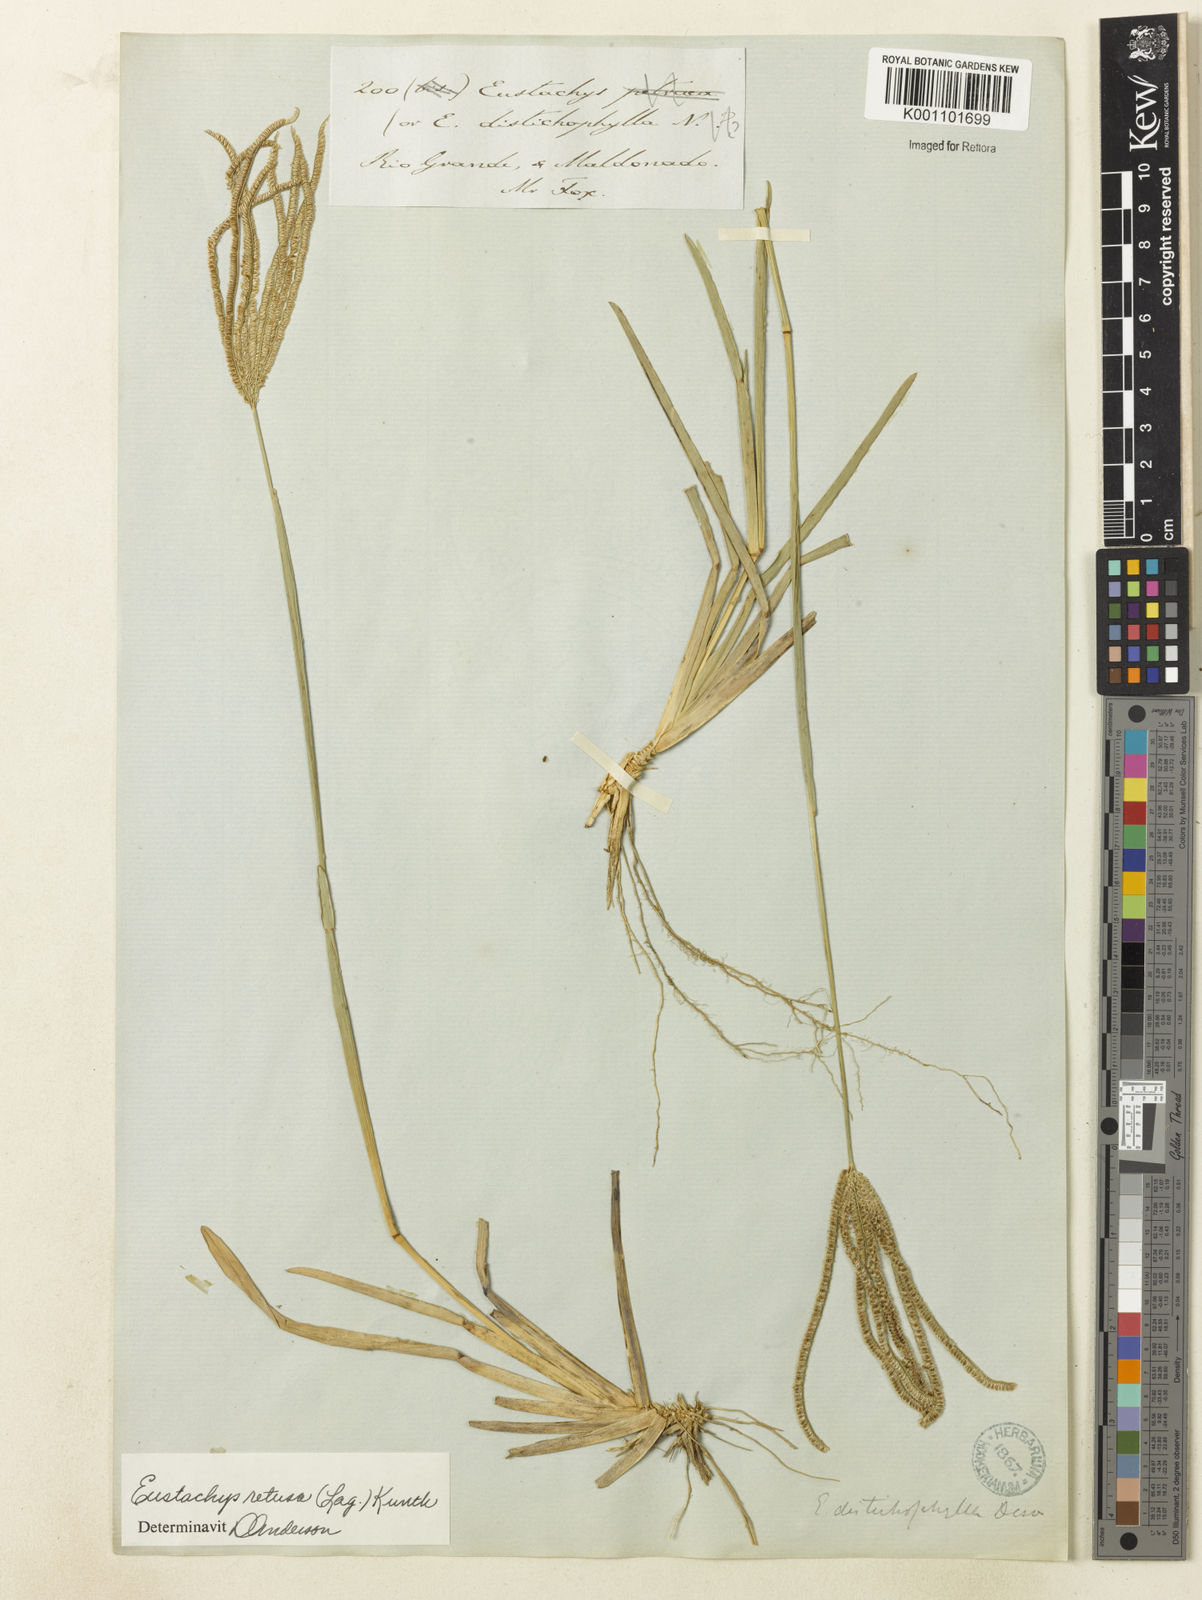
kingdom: Plantae
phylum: Tracheophyta
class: Liliopsida
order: Poales
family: Poaceae
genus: Eustachys
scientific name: Eustachys retusa
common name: Argentine fingergrass
